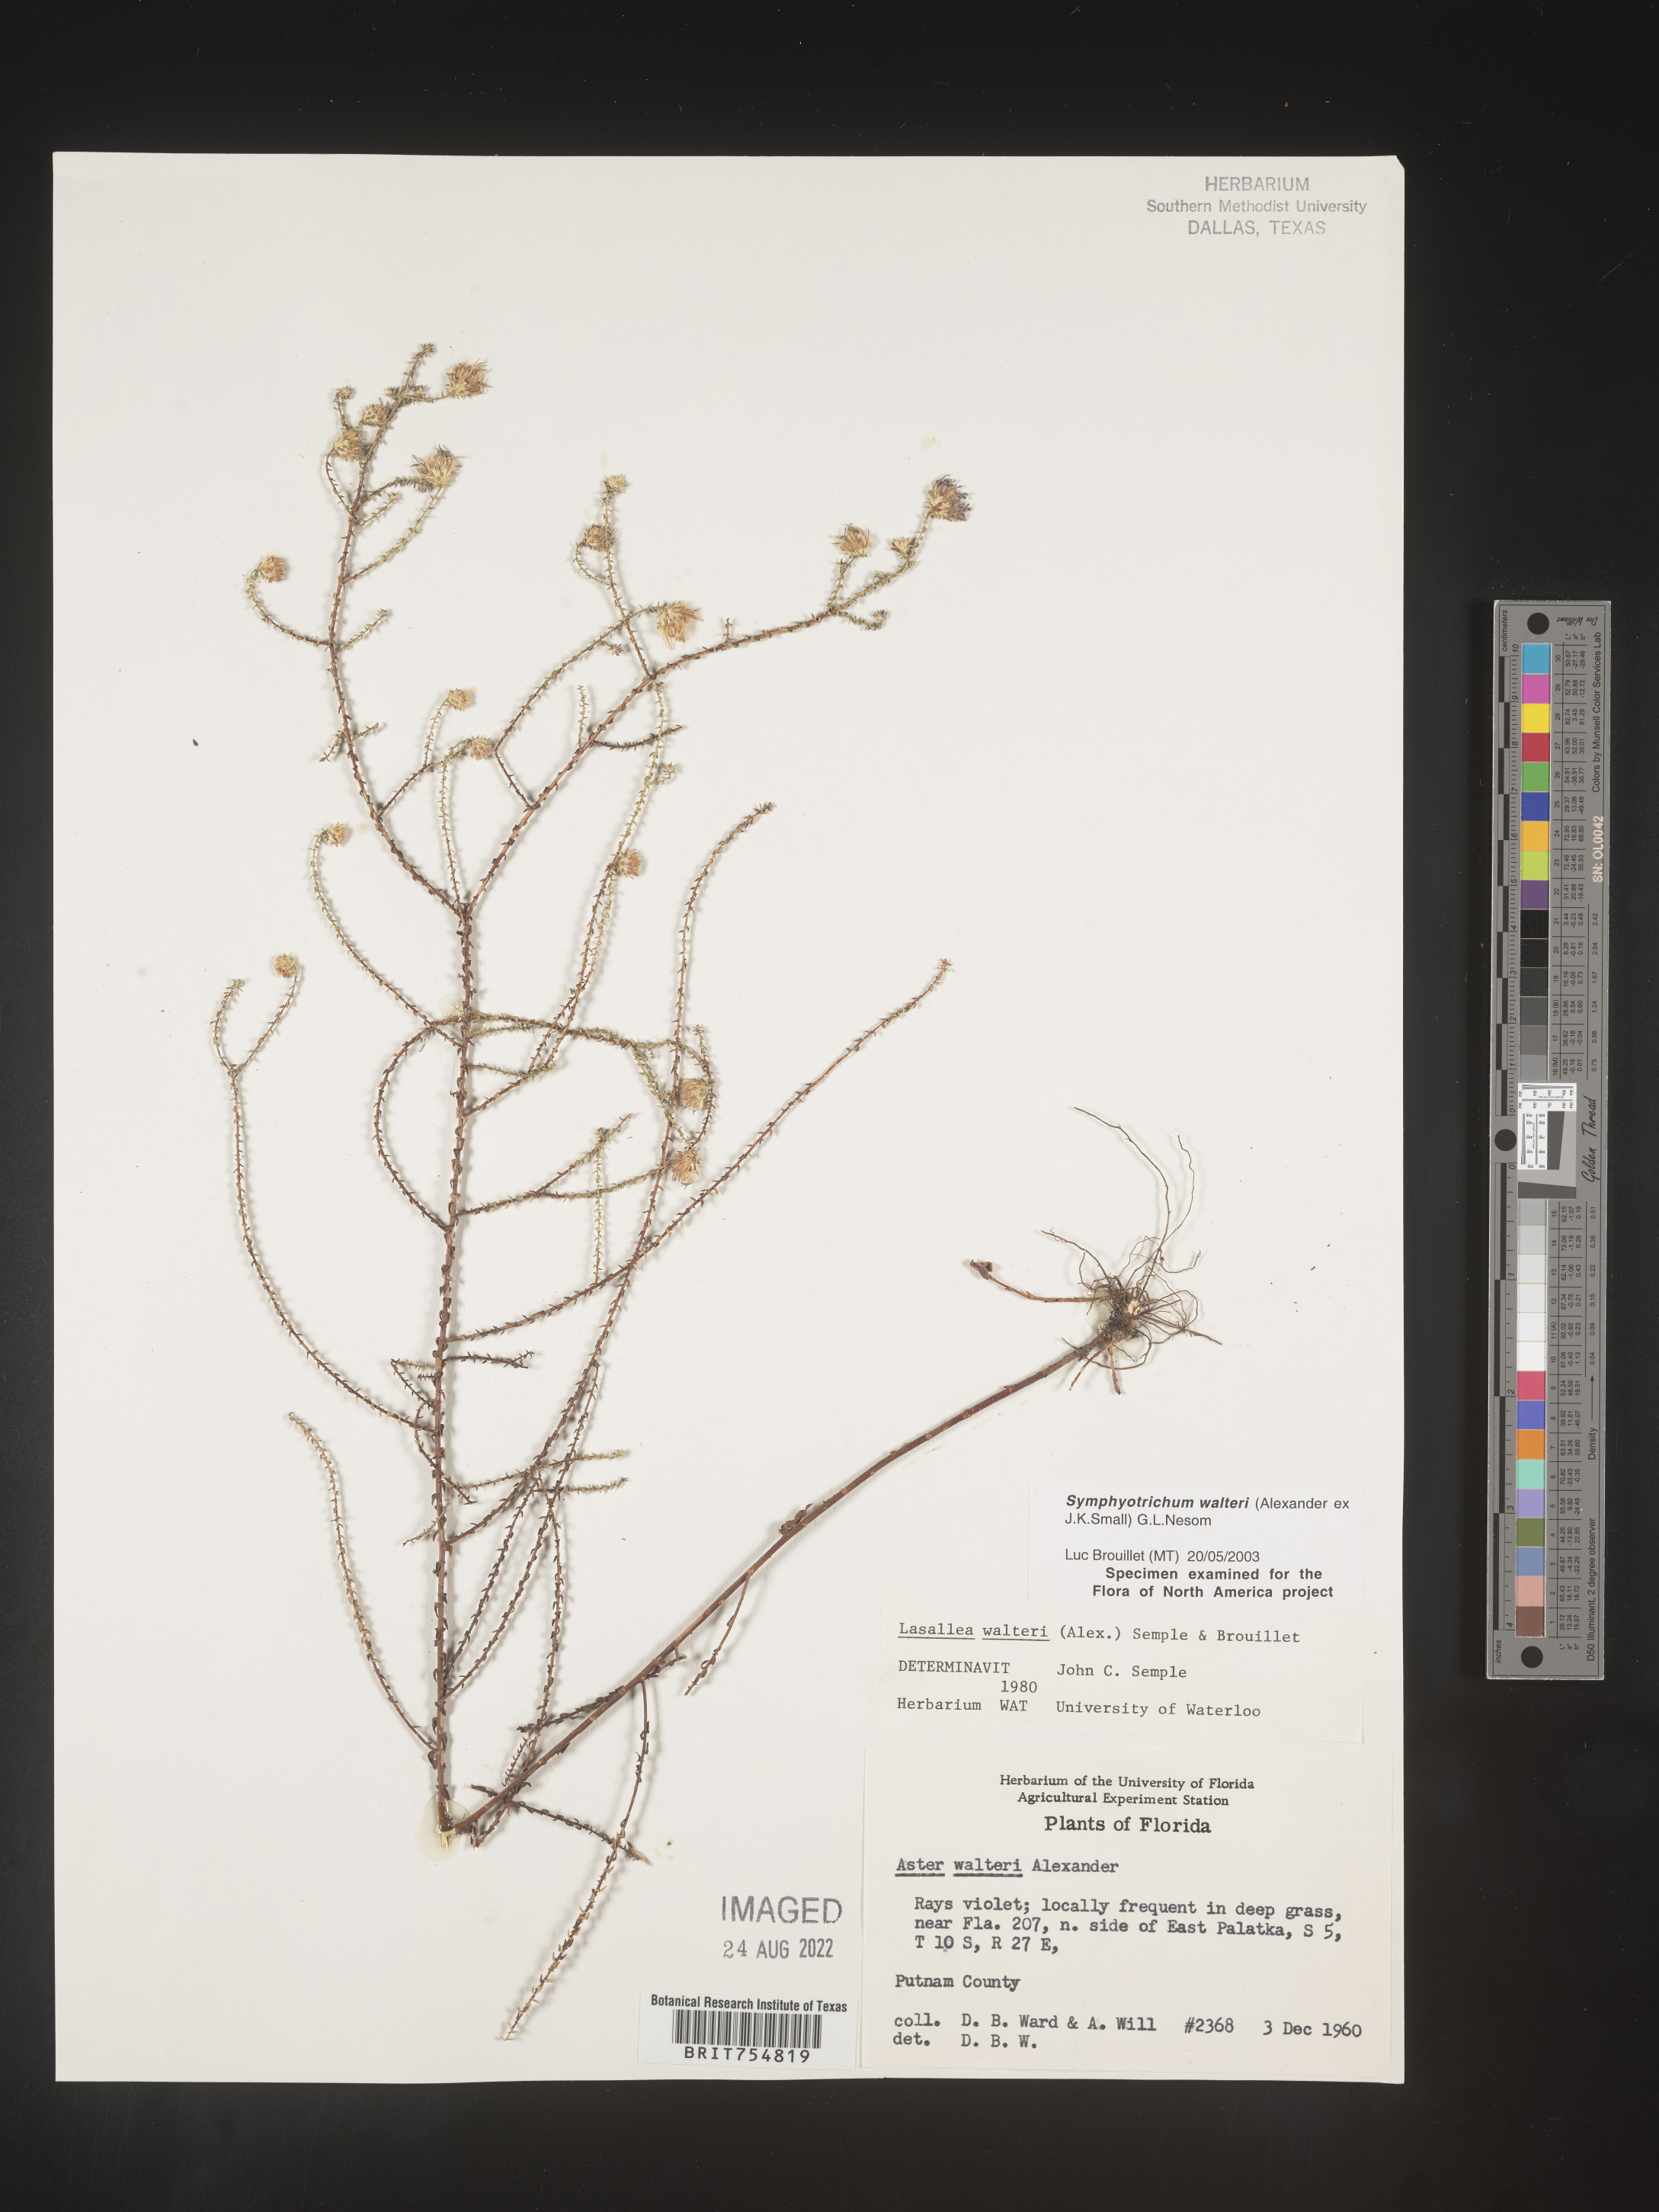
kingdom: Plantae
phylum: Tracheophyta
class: Magnoliopsida
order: Asterales
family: Asteraceae
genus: Symphyotrichum
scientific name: Symphyotrichum walteri
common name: Walter's aster
